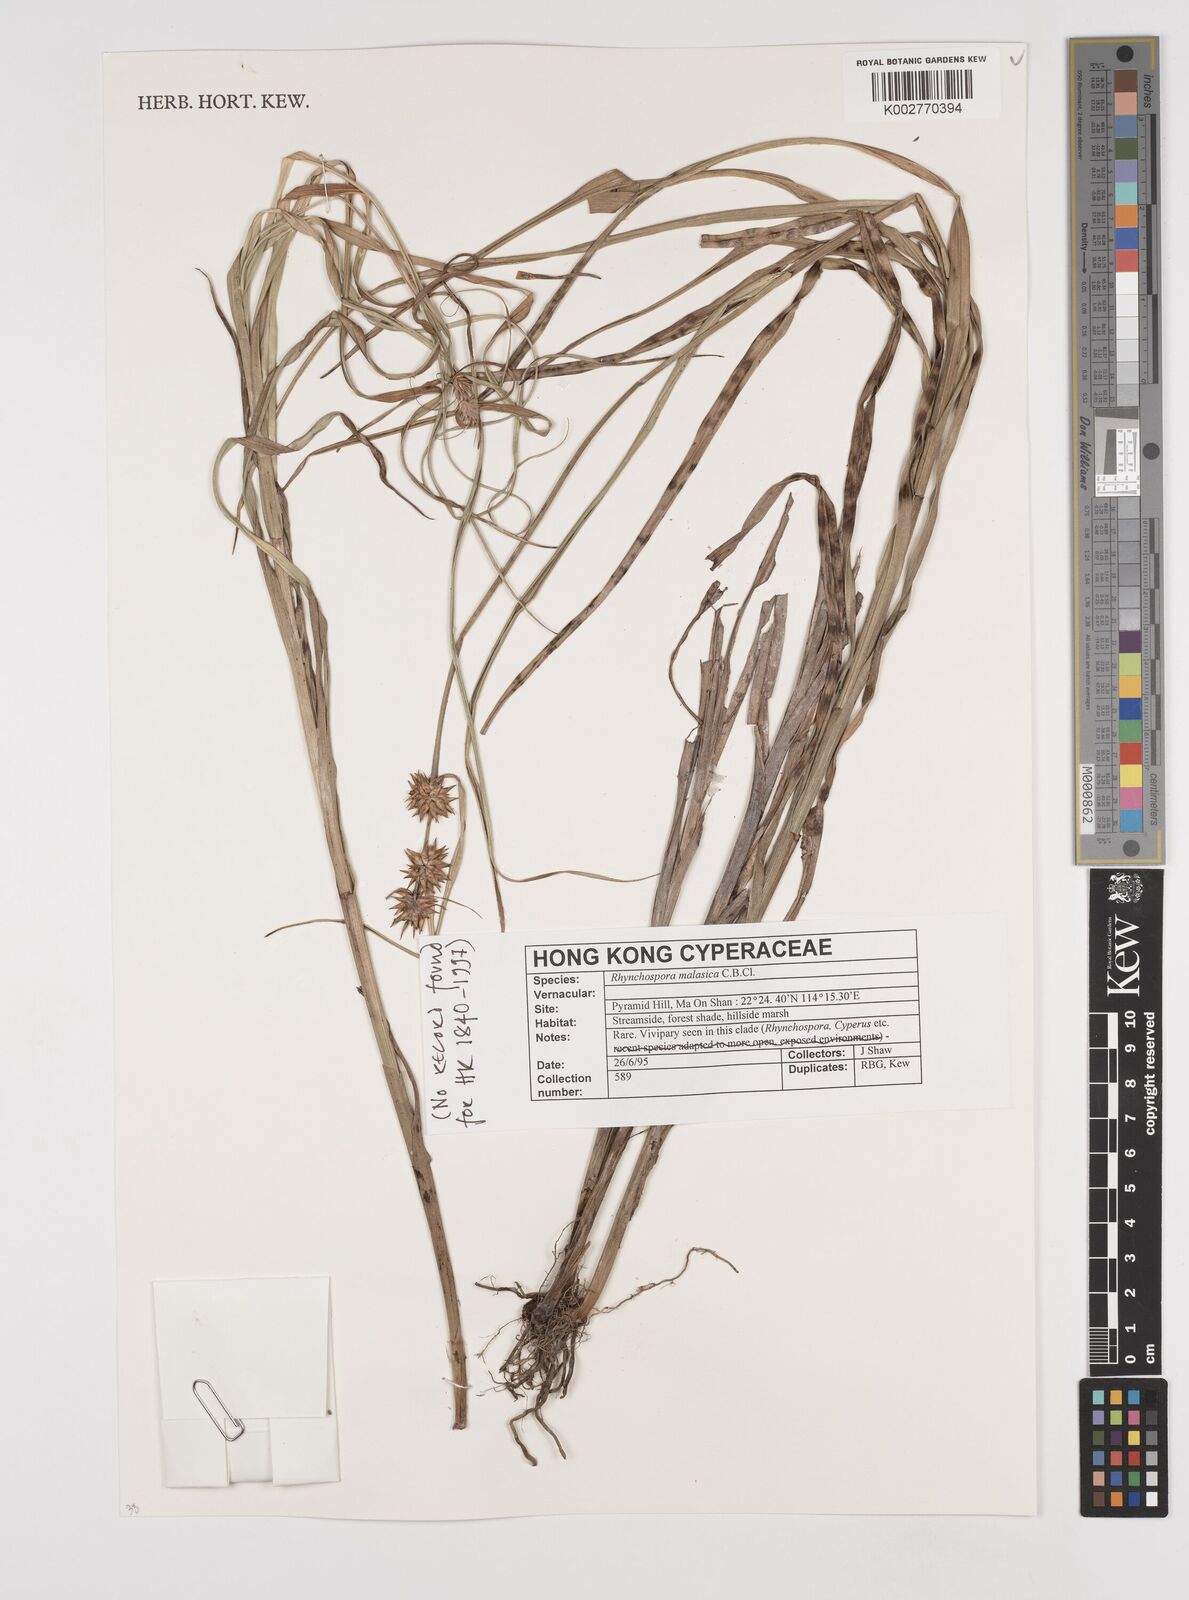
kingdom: Plantae
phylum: Tracheophyta
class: Liliopsida
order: Poales
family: Cyperaceae
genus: Rhynchospora
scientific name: Rhynchospora malasica
